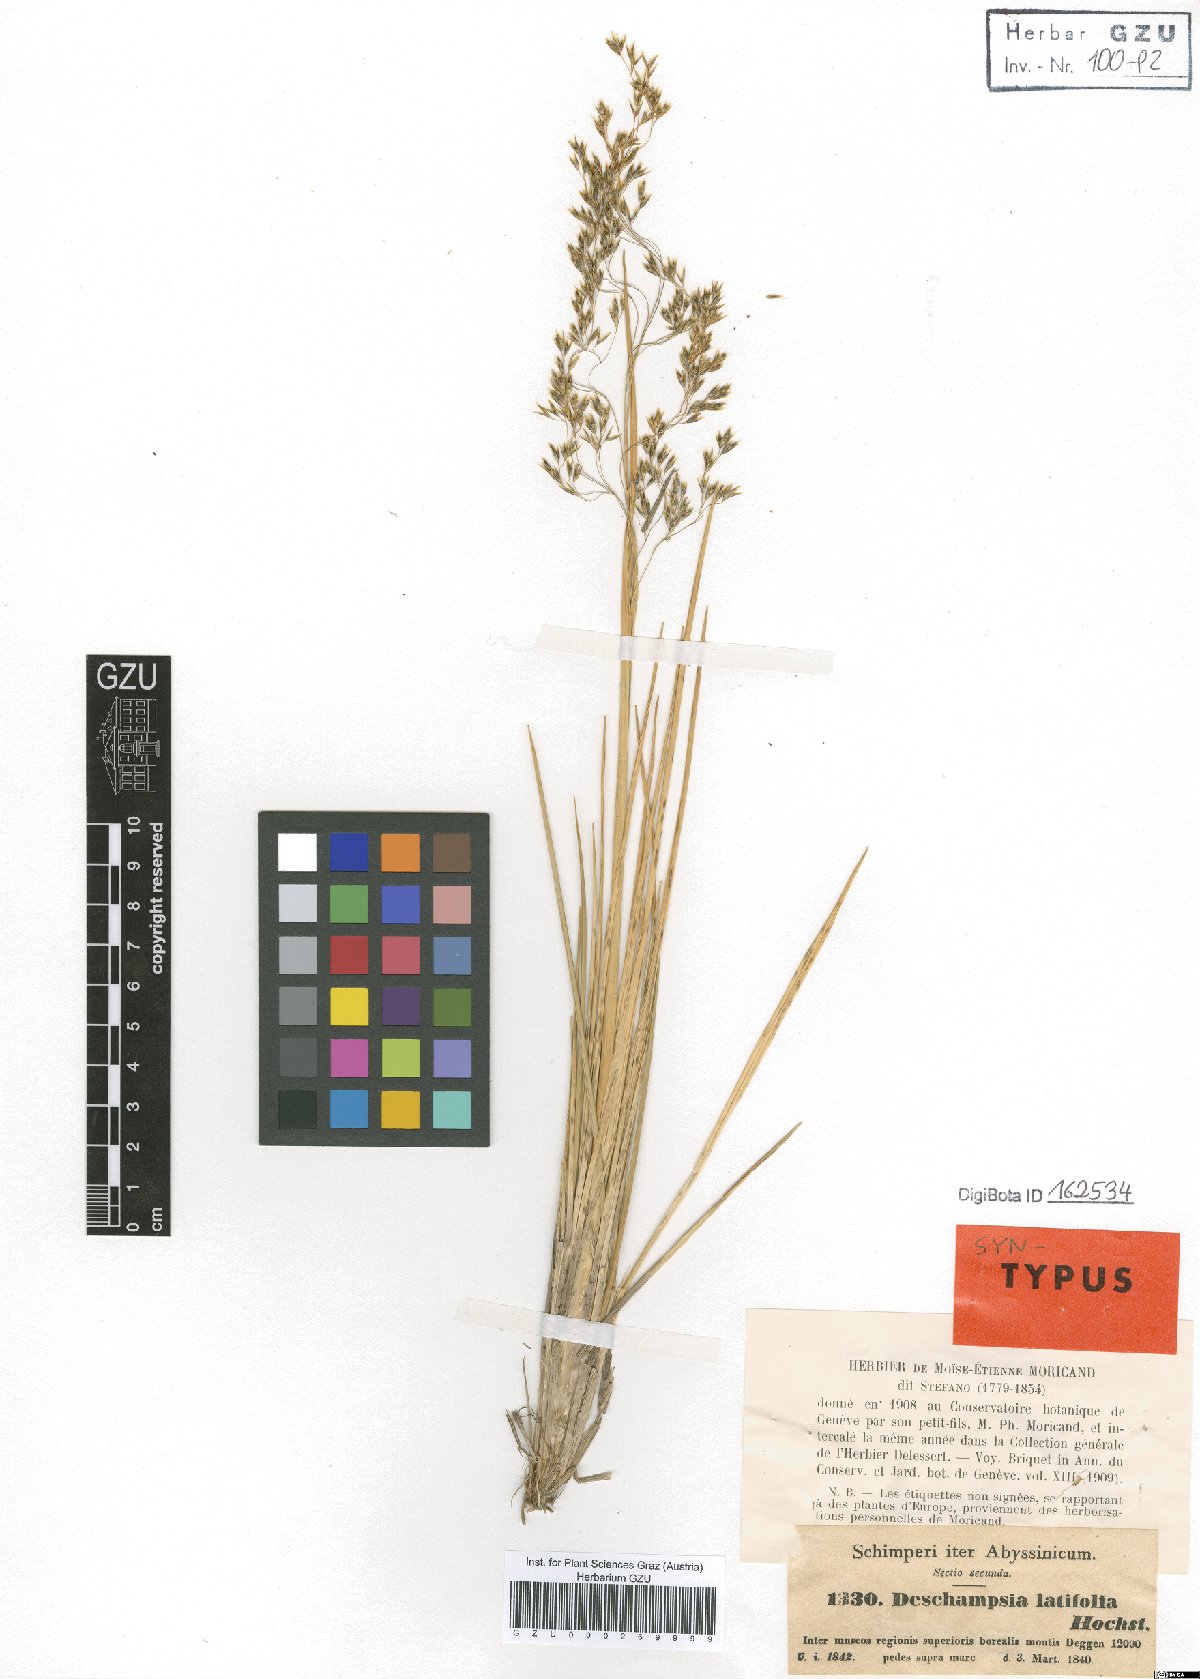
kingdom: Plantae
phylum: Tracheophyta
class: Liliopsida
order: Poales
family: Poaceae
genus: Deschampsia
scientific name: Deschampsia cespitosa
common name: Tufted hair-grass
